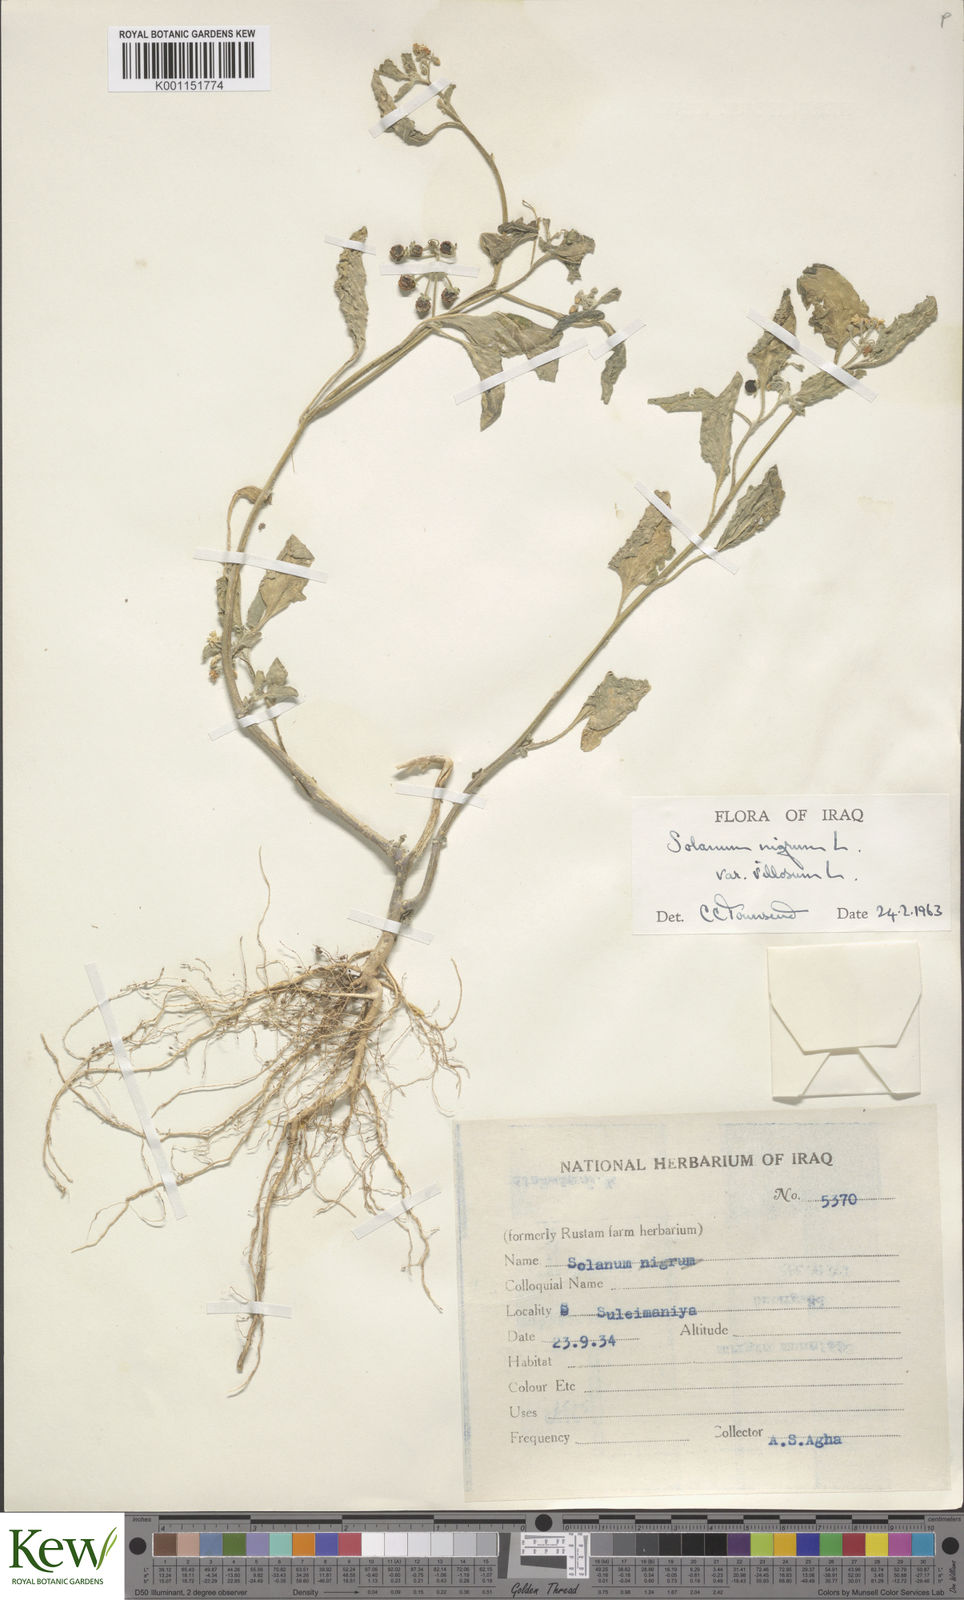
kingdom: Plantae
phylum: Tracheophyta
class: Magnoliopsida
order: Solanales
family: Solanaceae
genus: Solanum
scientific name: Solanum villosum
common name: Red nightshade
